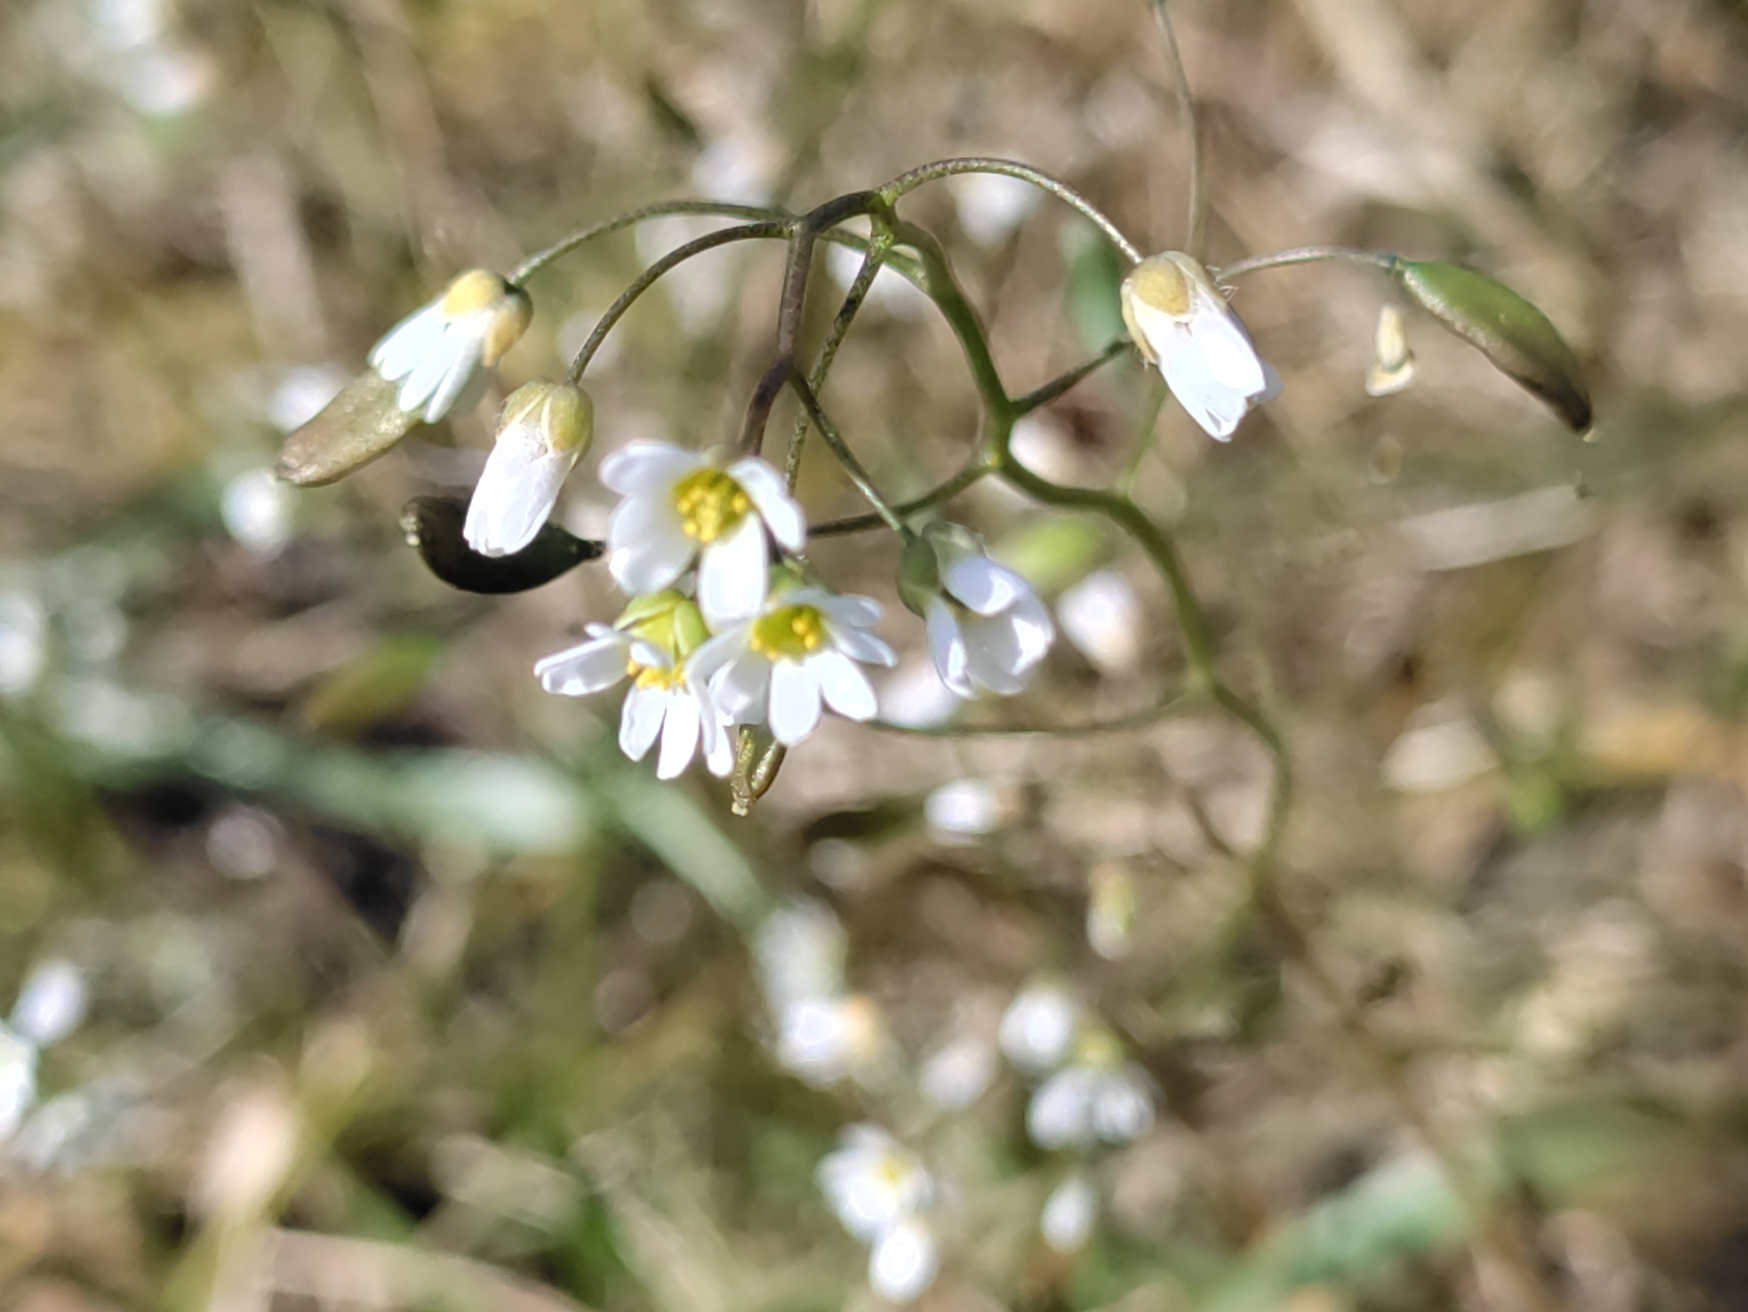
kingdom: Plantae
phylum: Tracheophyta
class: Magnoliopsida
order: Brassicales
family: Brassicaceae
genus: Draba
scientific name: Draba verna
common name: Vår-gæslingeblomst
